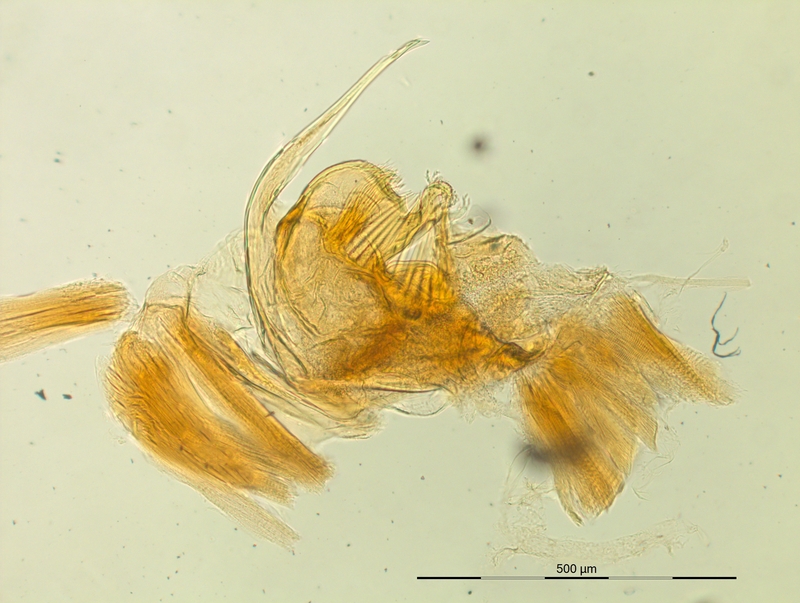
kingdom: Animalia
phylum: Arthropoda
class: Diplopoda
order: Chordeumatida
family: Craspedosomatidae
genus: Craspedosoma
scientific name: Craspedosoma rawlinsii
